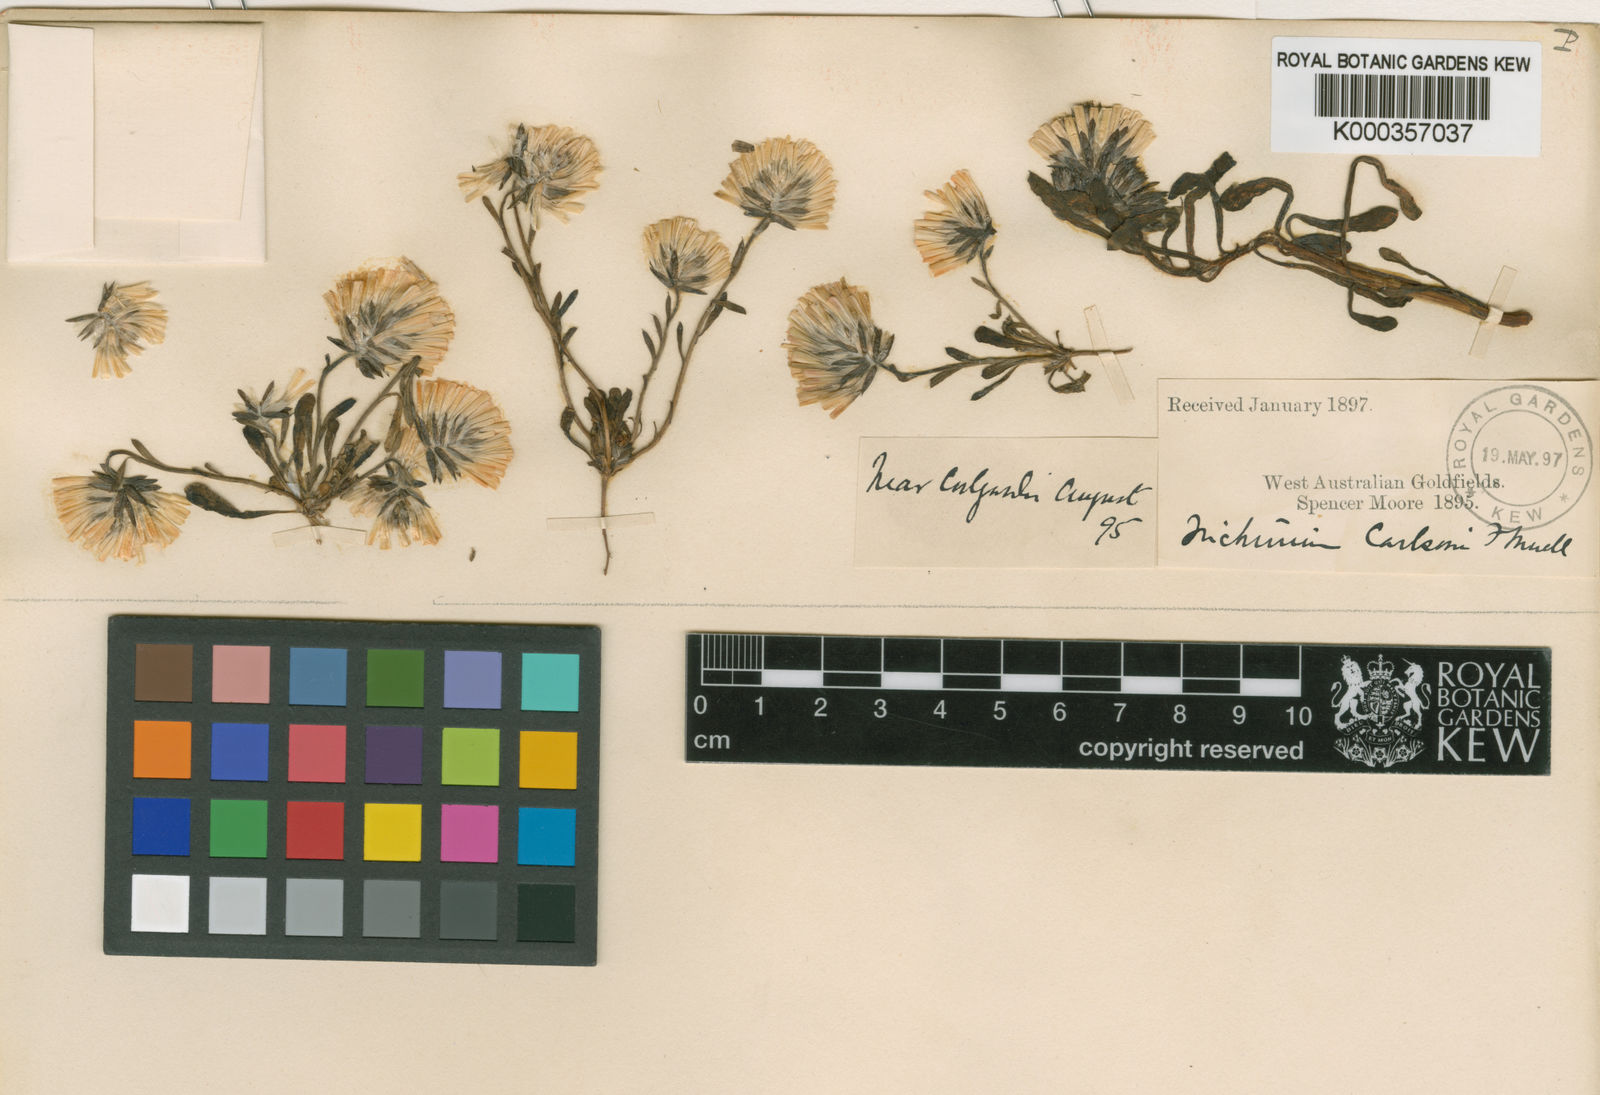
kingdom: Plantae
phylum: Tracheophyta
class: Magnoliopsida
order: Caryophyllales
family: Amaranthaceae
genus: Ptilotus
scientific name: Ptilotus carlsonii
